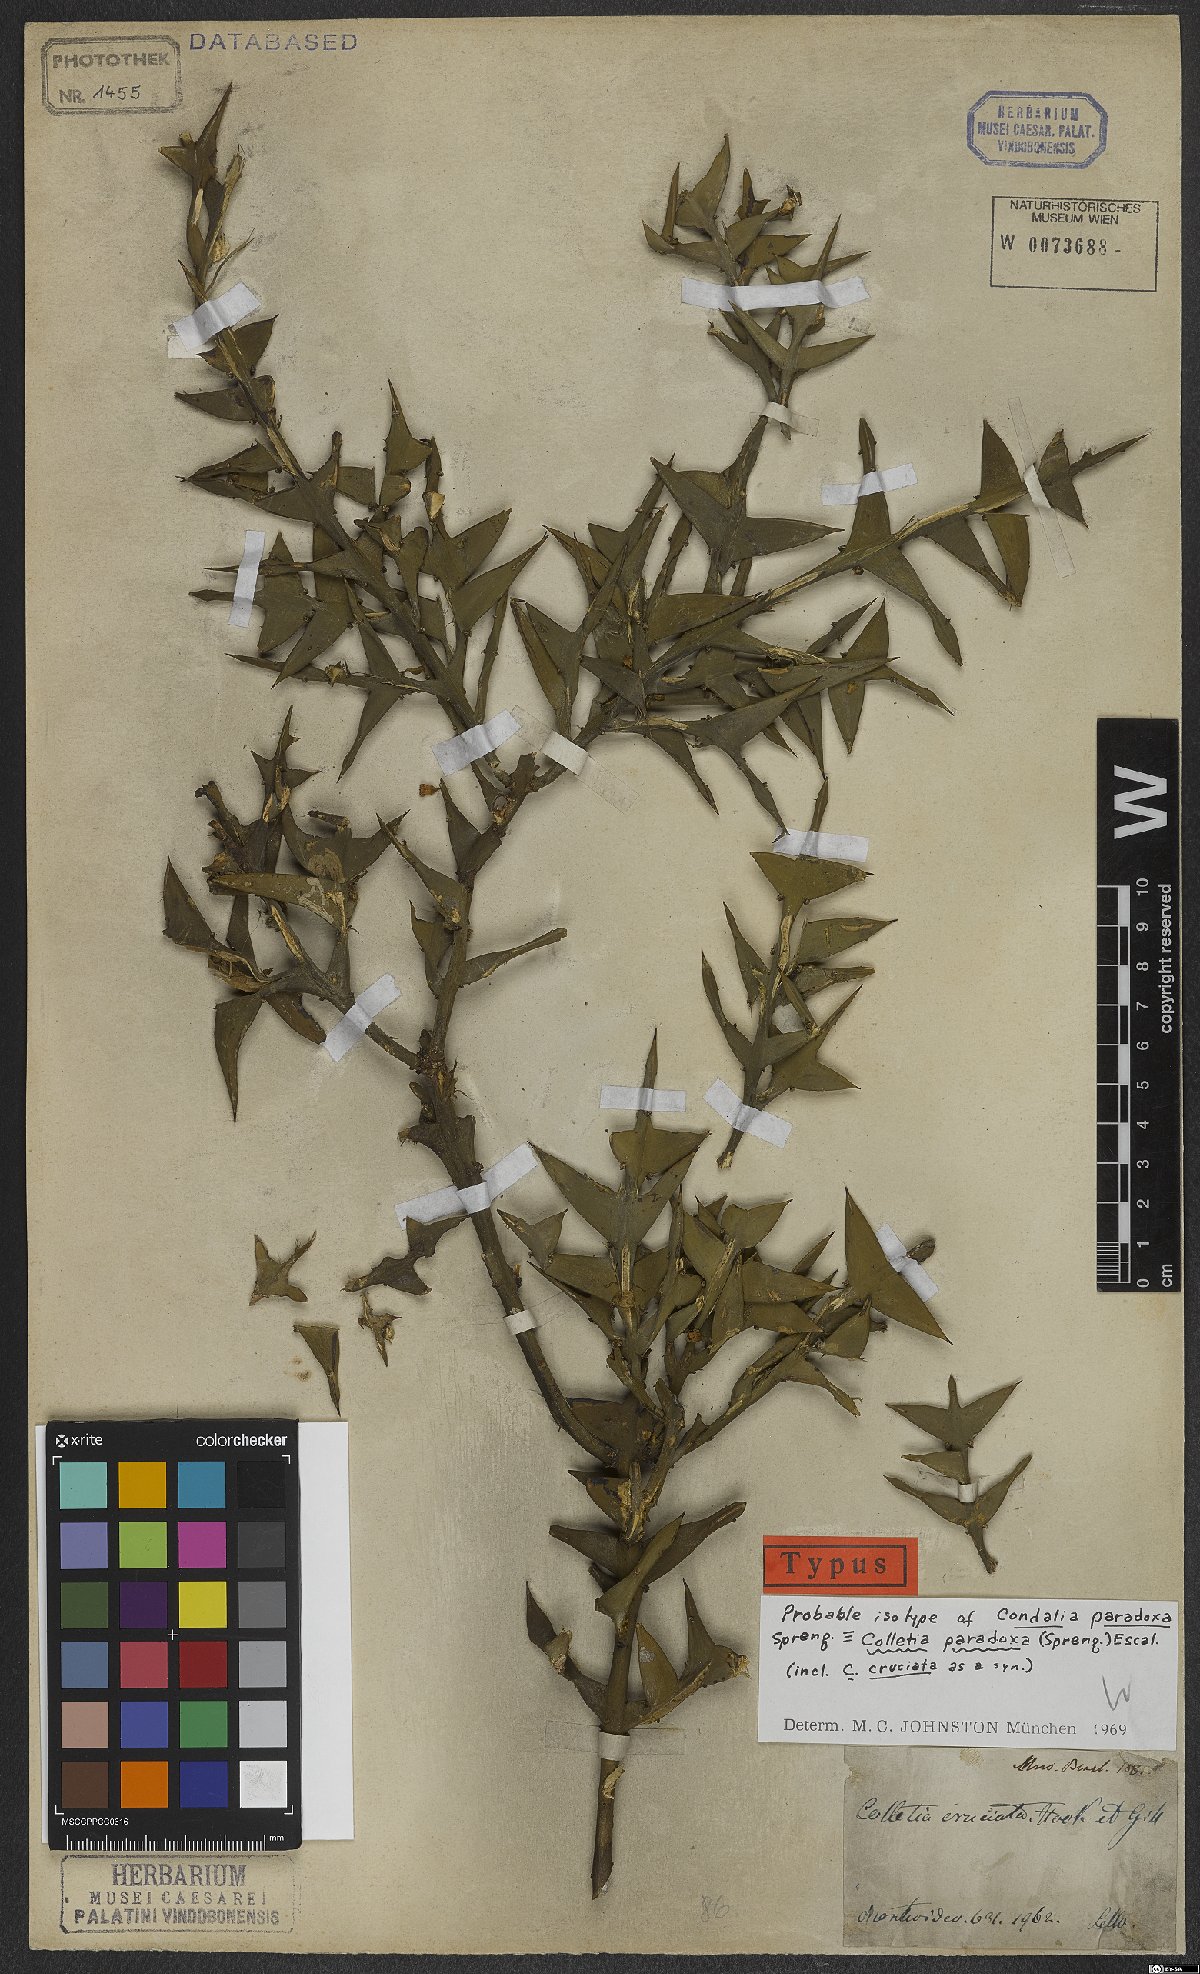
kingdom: Plantae
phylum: Tracheophyta
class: Magnoliopsida
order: Rosales
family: Rhamnaceae
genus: Colletia
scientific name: Colletia paradoxa
